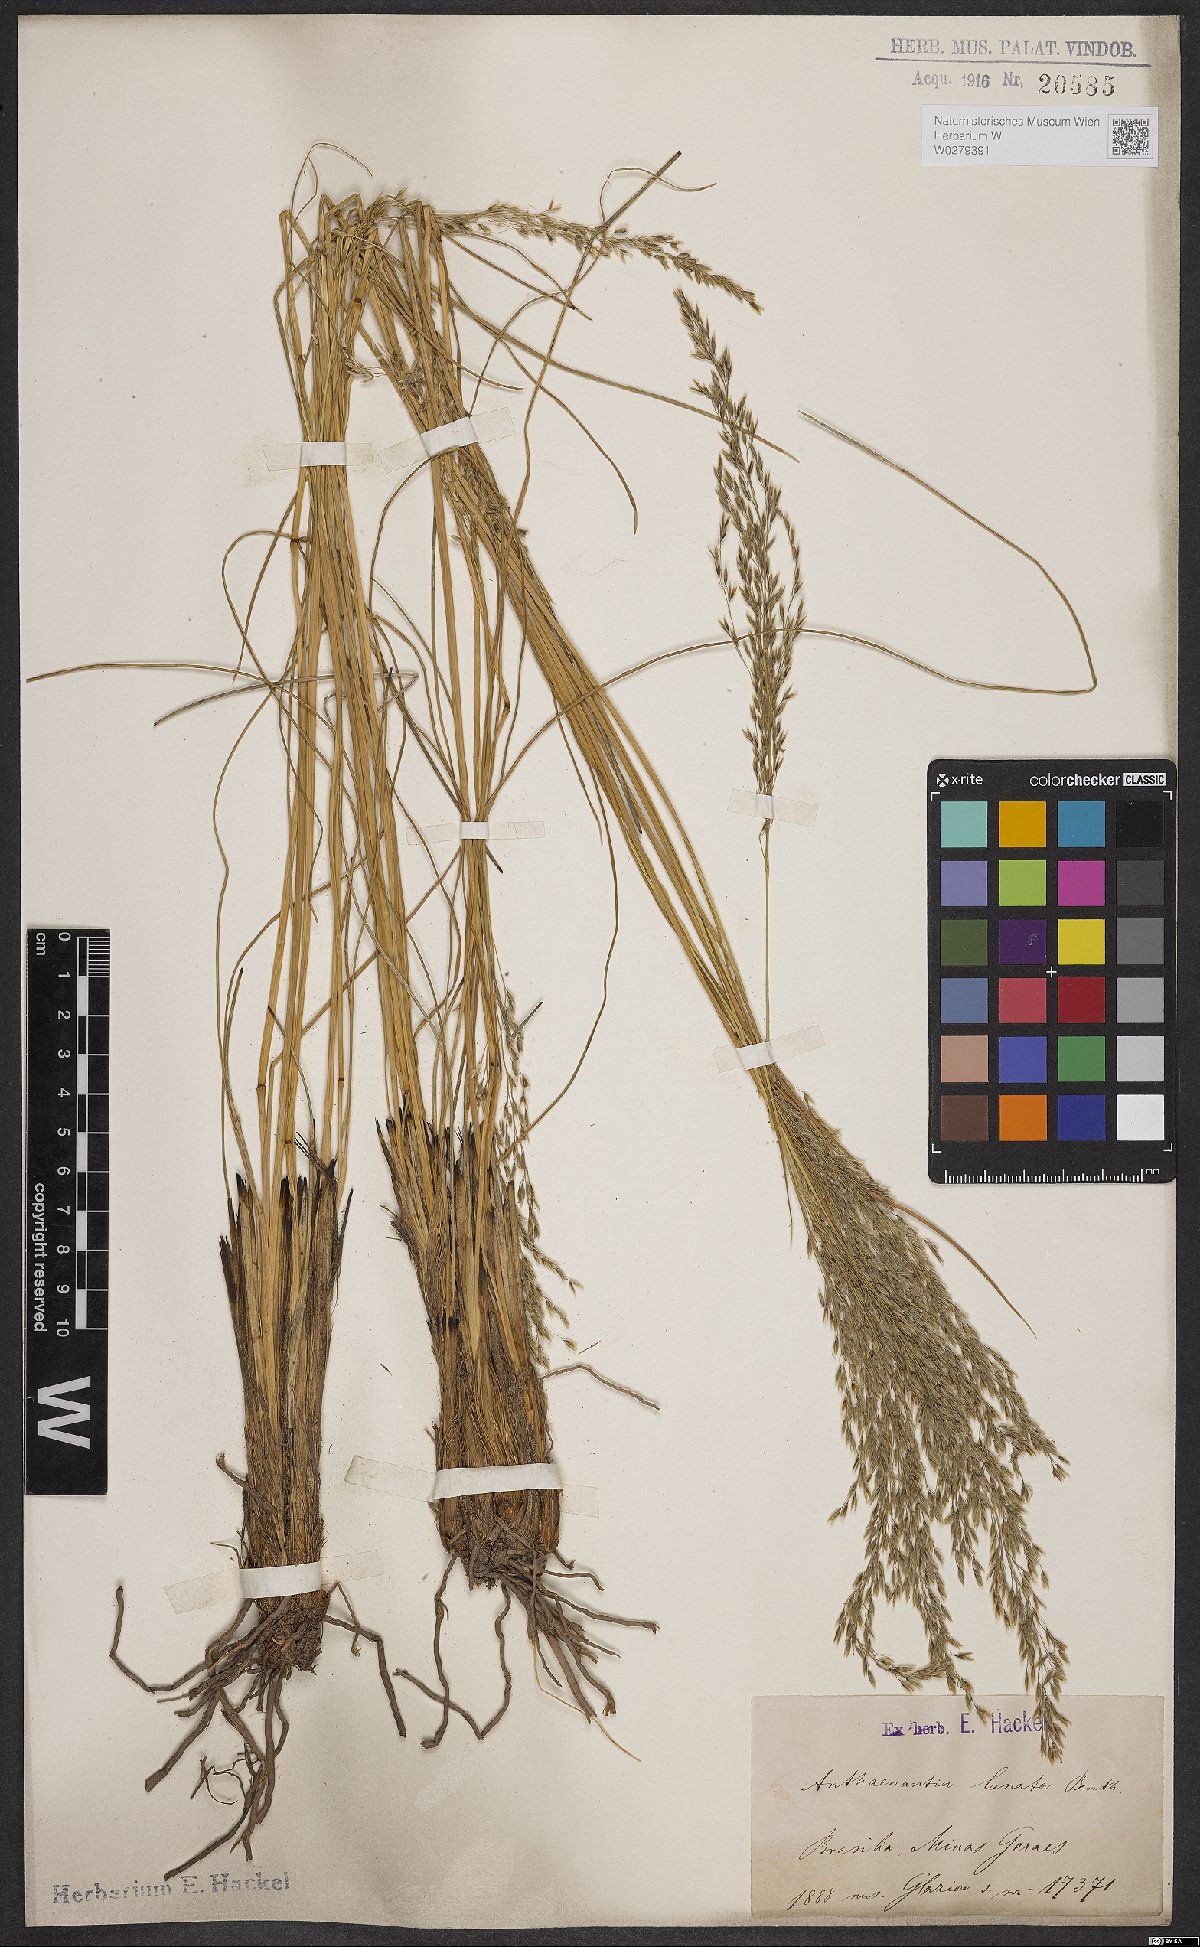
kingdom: Plantae
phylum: Tracheophyta
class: Liliopsida
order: Poales
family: Poaceae
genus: Anthaenantia
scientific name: Anthaenantia lanata
